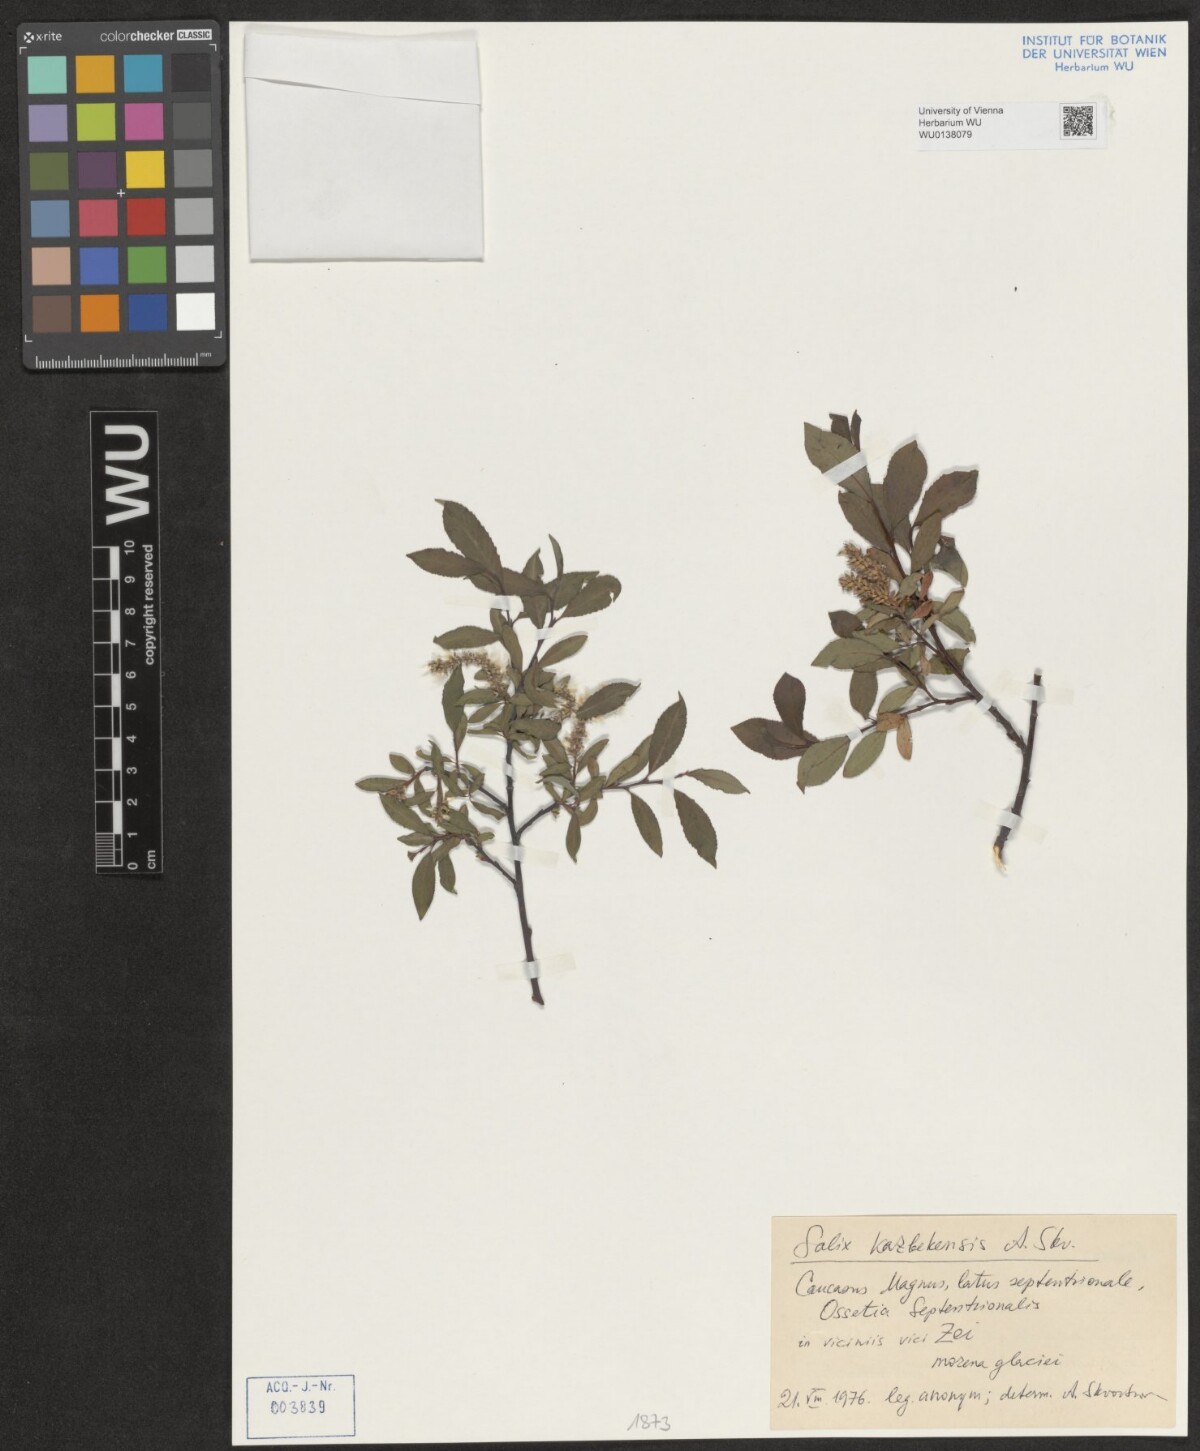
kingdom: Plantae
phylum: Tracheophyta
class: Magnoliopsida
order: Malpighiales
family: Salicaceae
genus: Salix
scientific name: Salix kazbekensis
